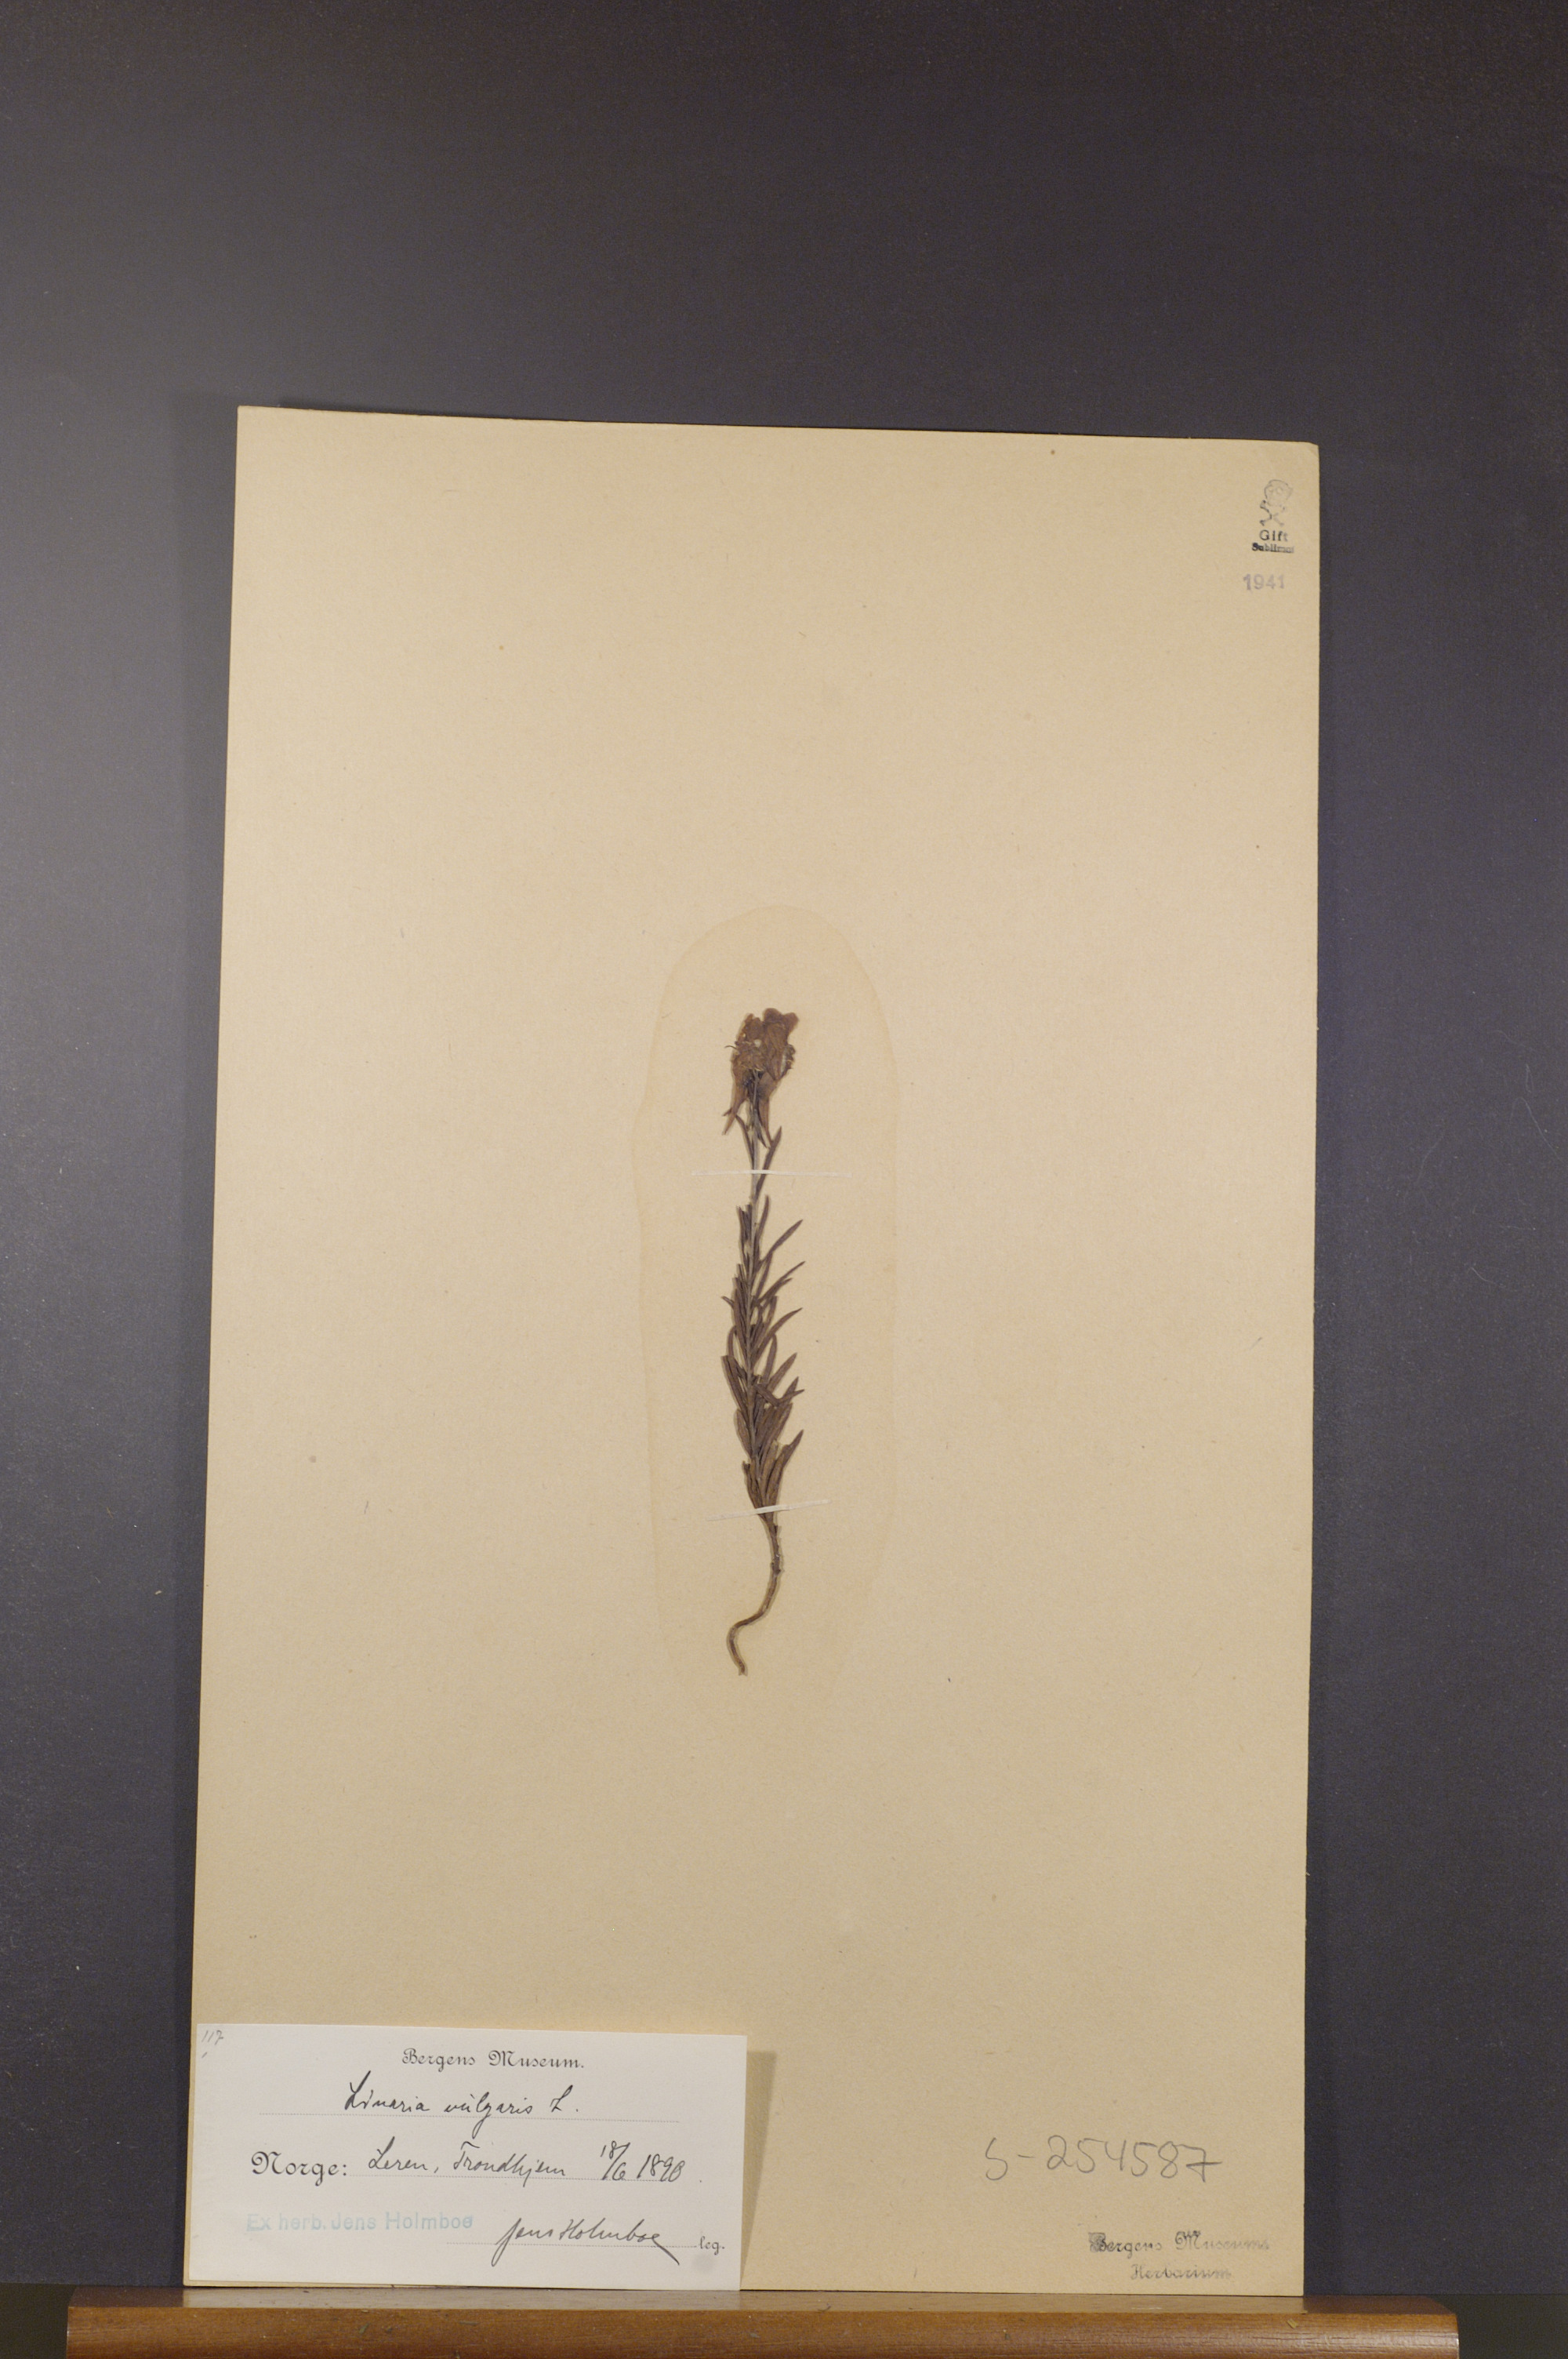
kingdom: Plantae
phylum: Tracheophyta
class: Magnoliopsida
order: Lamiales
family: Plantaginaceae
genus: Linaria
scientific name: Linaria vulgaris
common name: Butter and eggs
